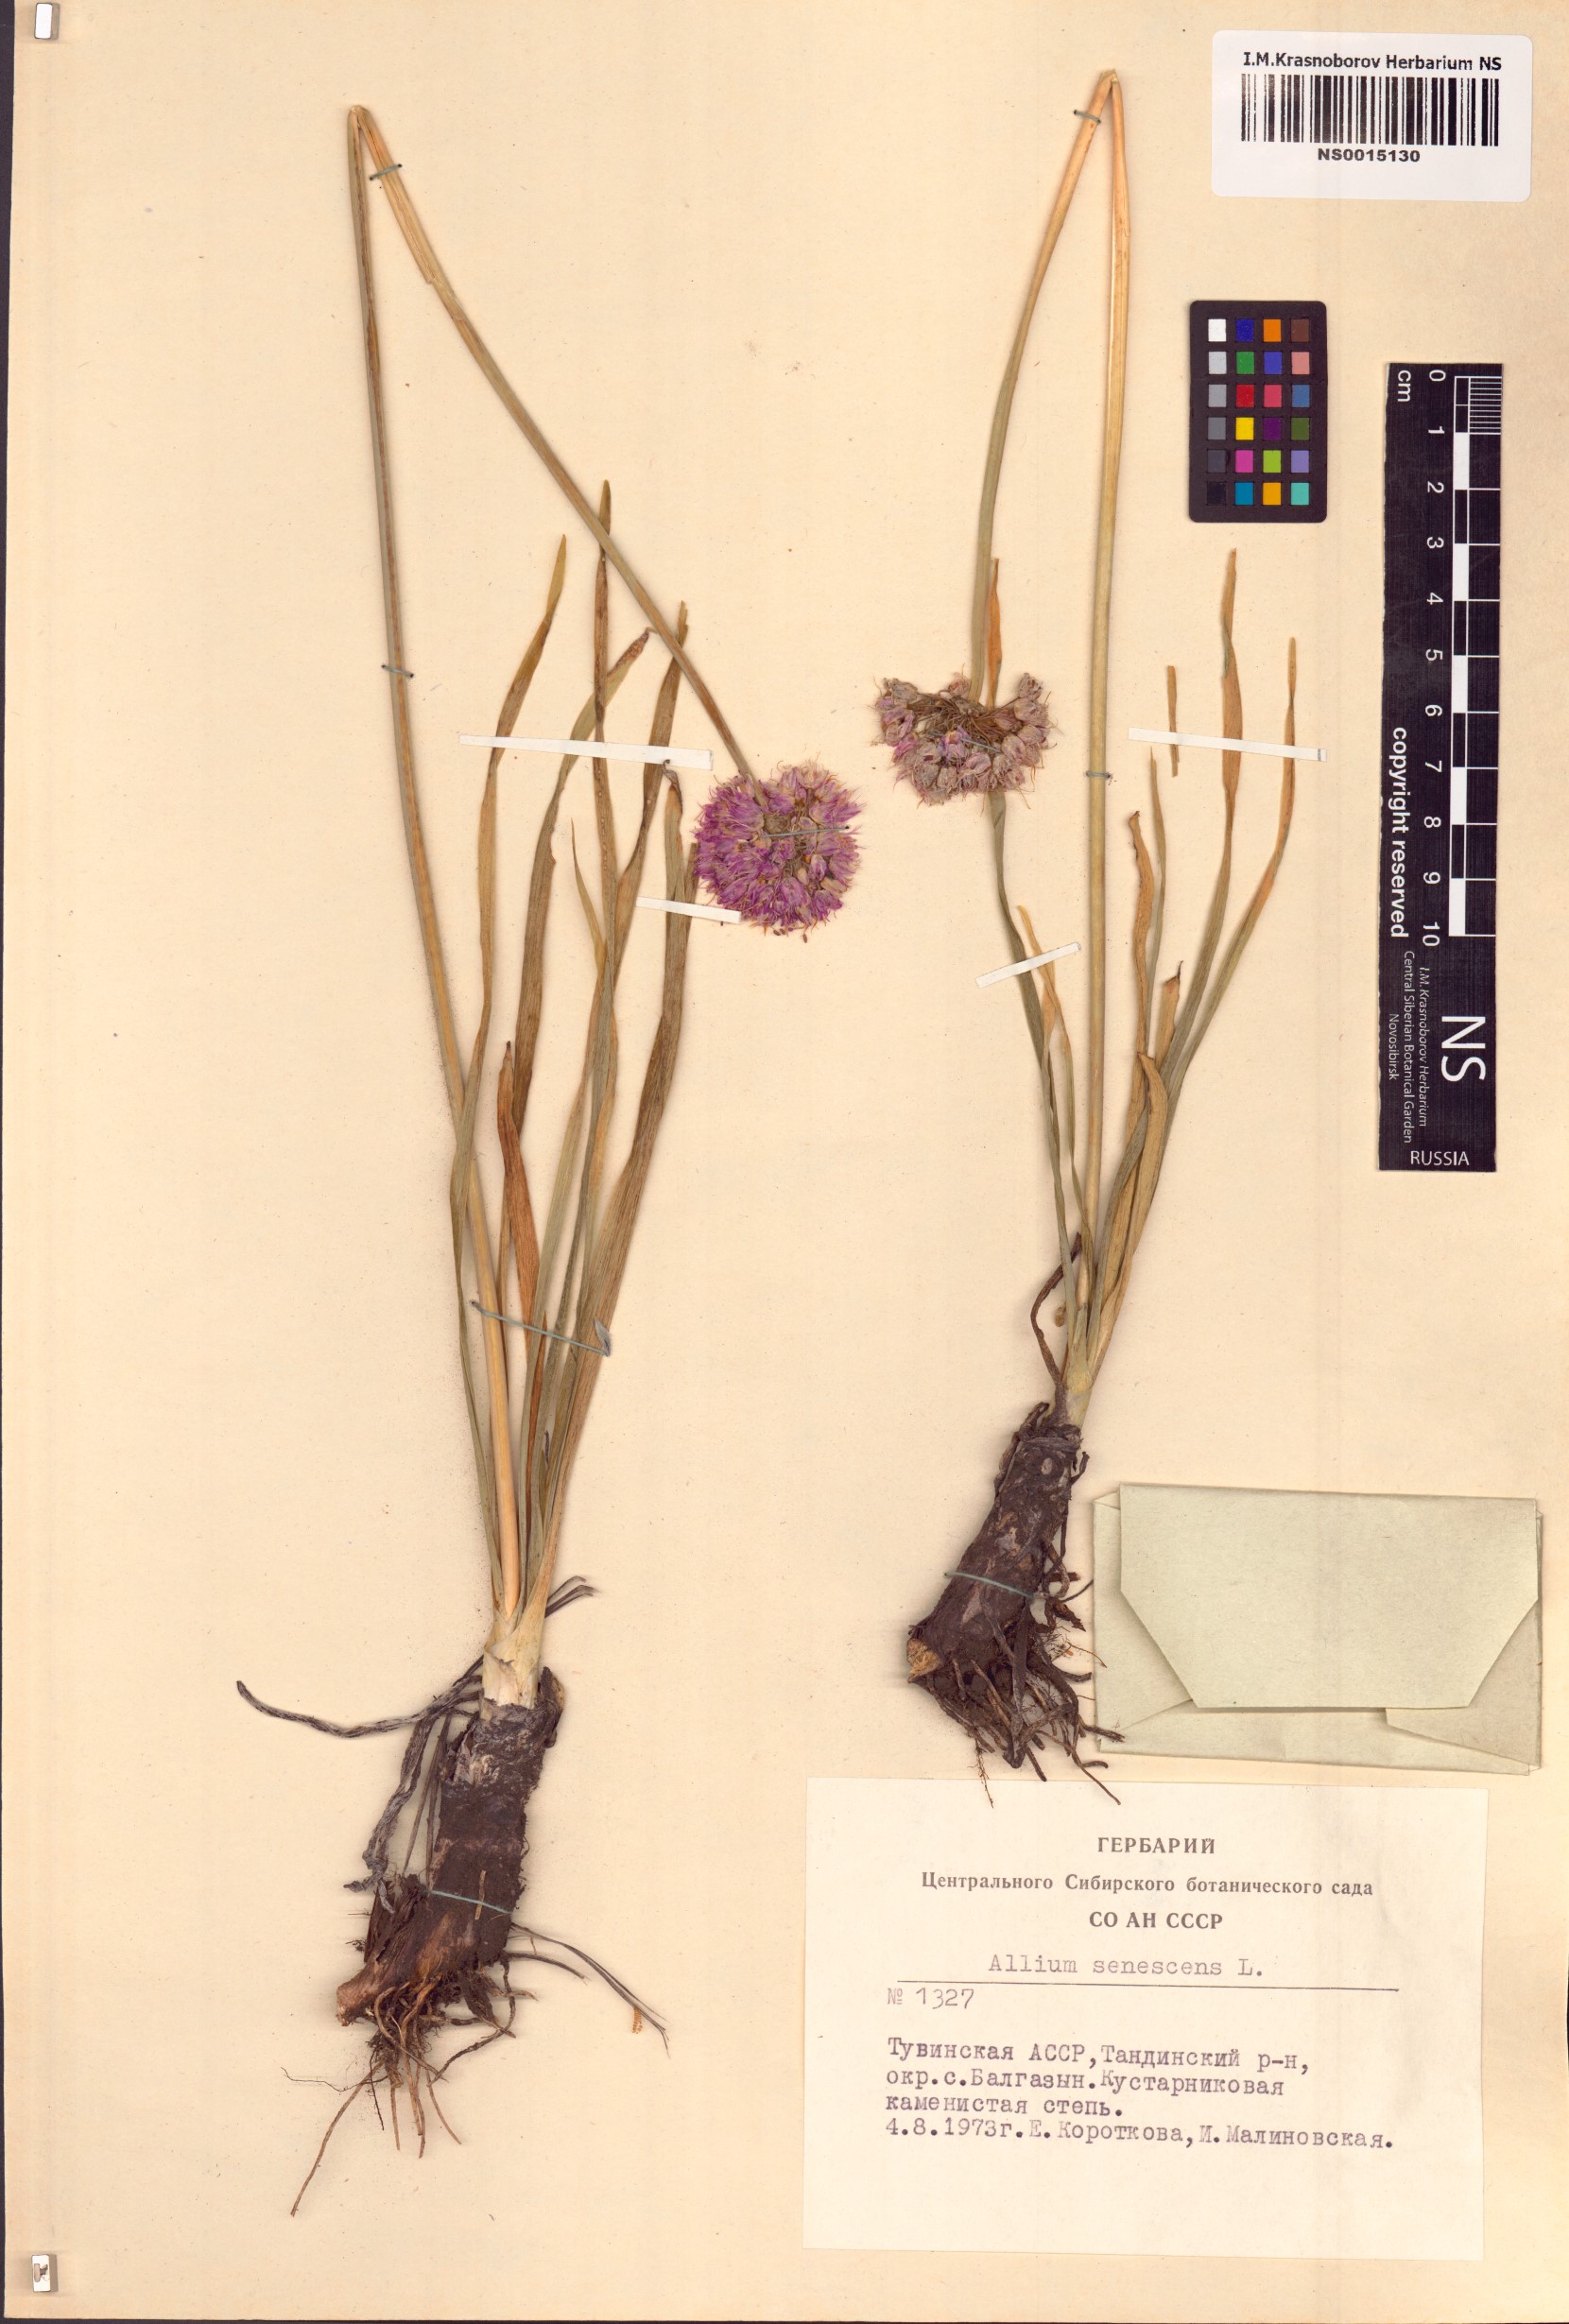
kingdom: Plantae
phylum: Tracheophyta
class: Liliopsida
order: Asparagales
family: Amaryllidaceae
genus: Allium
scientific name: Allium senescens
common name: German garlic
